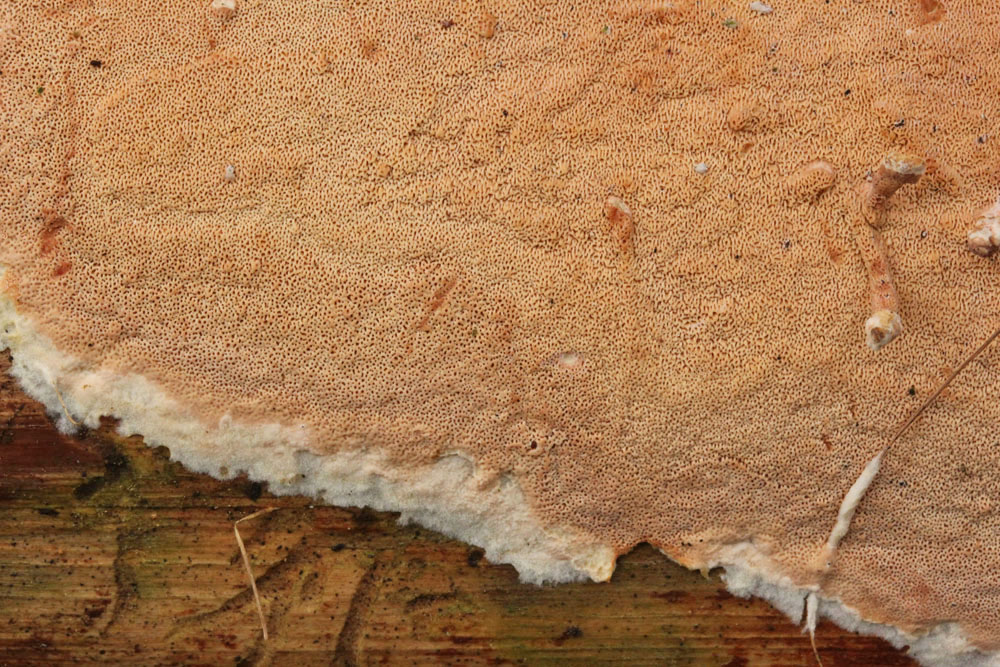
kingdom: Fungi
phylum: Basidiomycota
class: Agaricomycetes
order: Polyporales
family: Irpicaceae
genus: Meruliopsis
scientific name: Meruliopsis taxicola
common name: purpurbrun foldporesvamp
